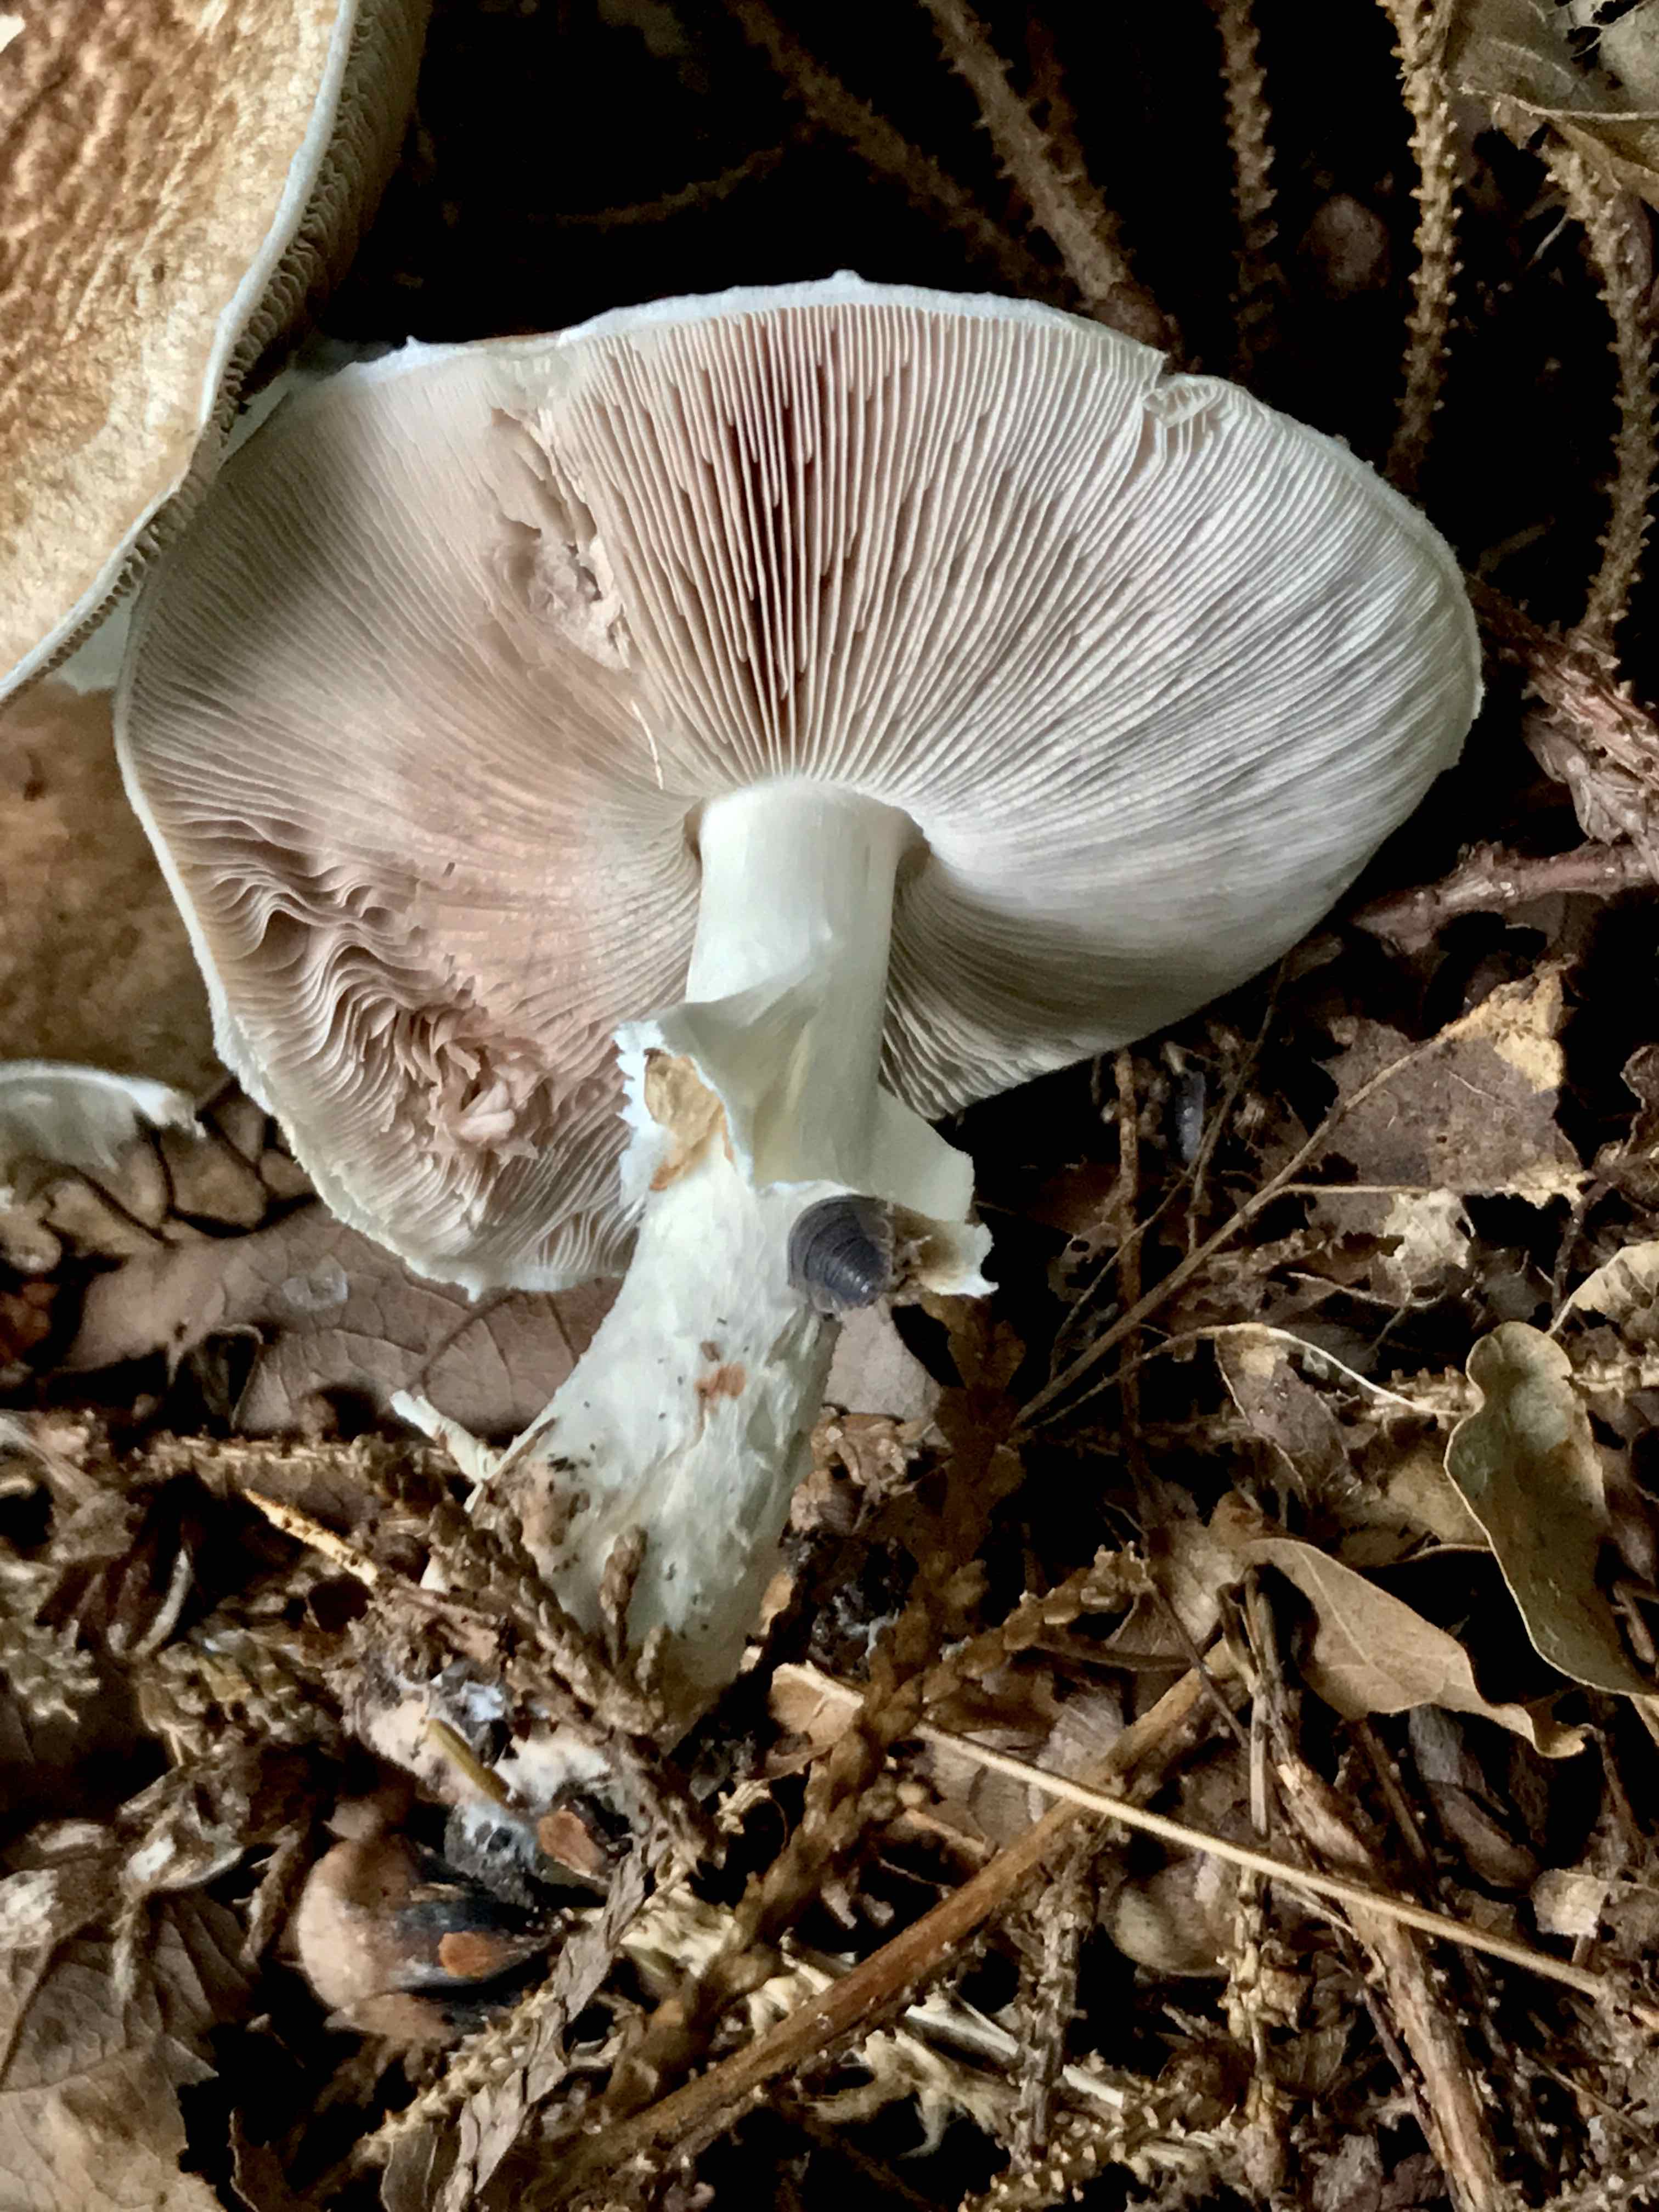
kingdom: Fungi
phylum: Basidiomycota
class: Agaricomycetes
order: Agaricales
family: Agaricaceae
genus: Agaricus
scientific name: Agaricus impudicus
